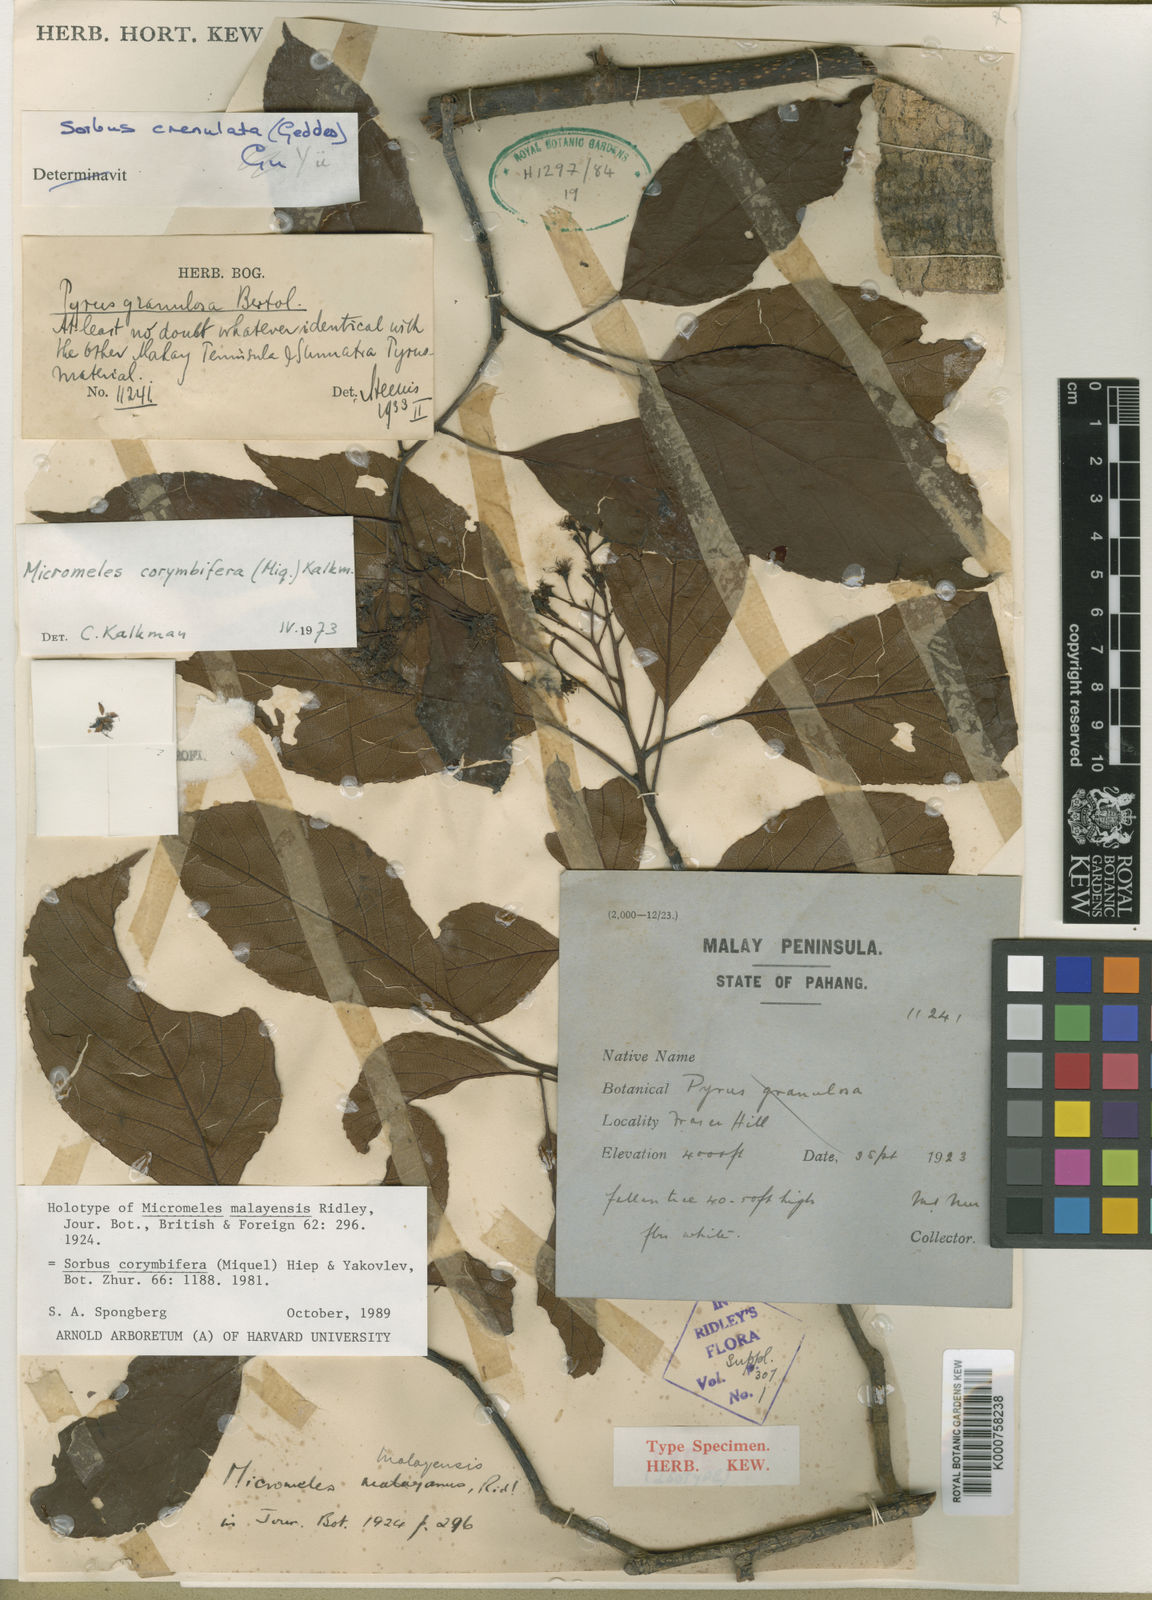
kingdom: Plantae
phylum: Tracheophyta
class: Magnoliopsida
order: Rosales
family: Rosaceae
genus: Sorbus
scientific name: Sorbus
